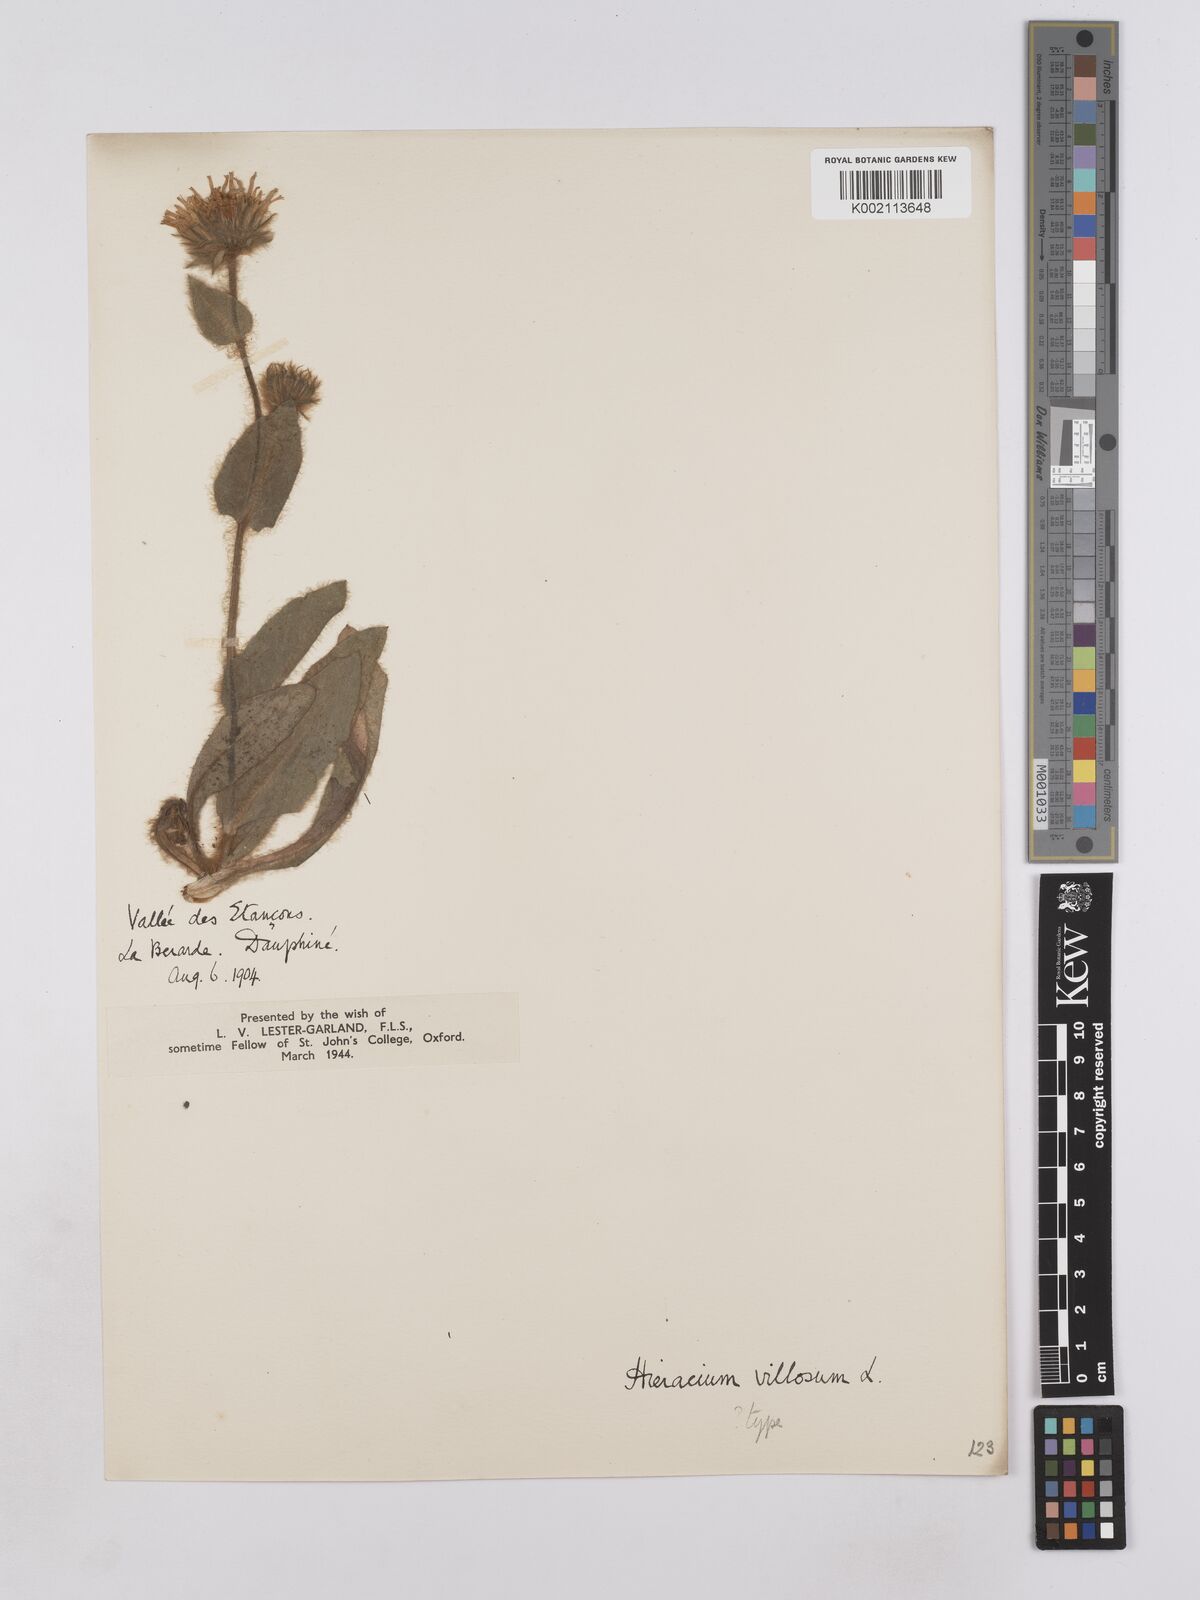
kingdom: Plantae
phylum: Tracheophyta
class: Magnoliopsida
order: Asterales
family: Asteraceae
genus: Hieracium
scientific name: Hieracium villosum
